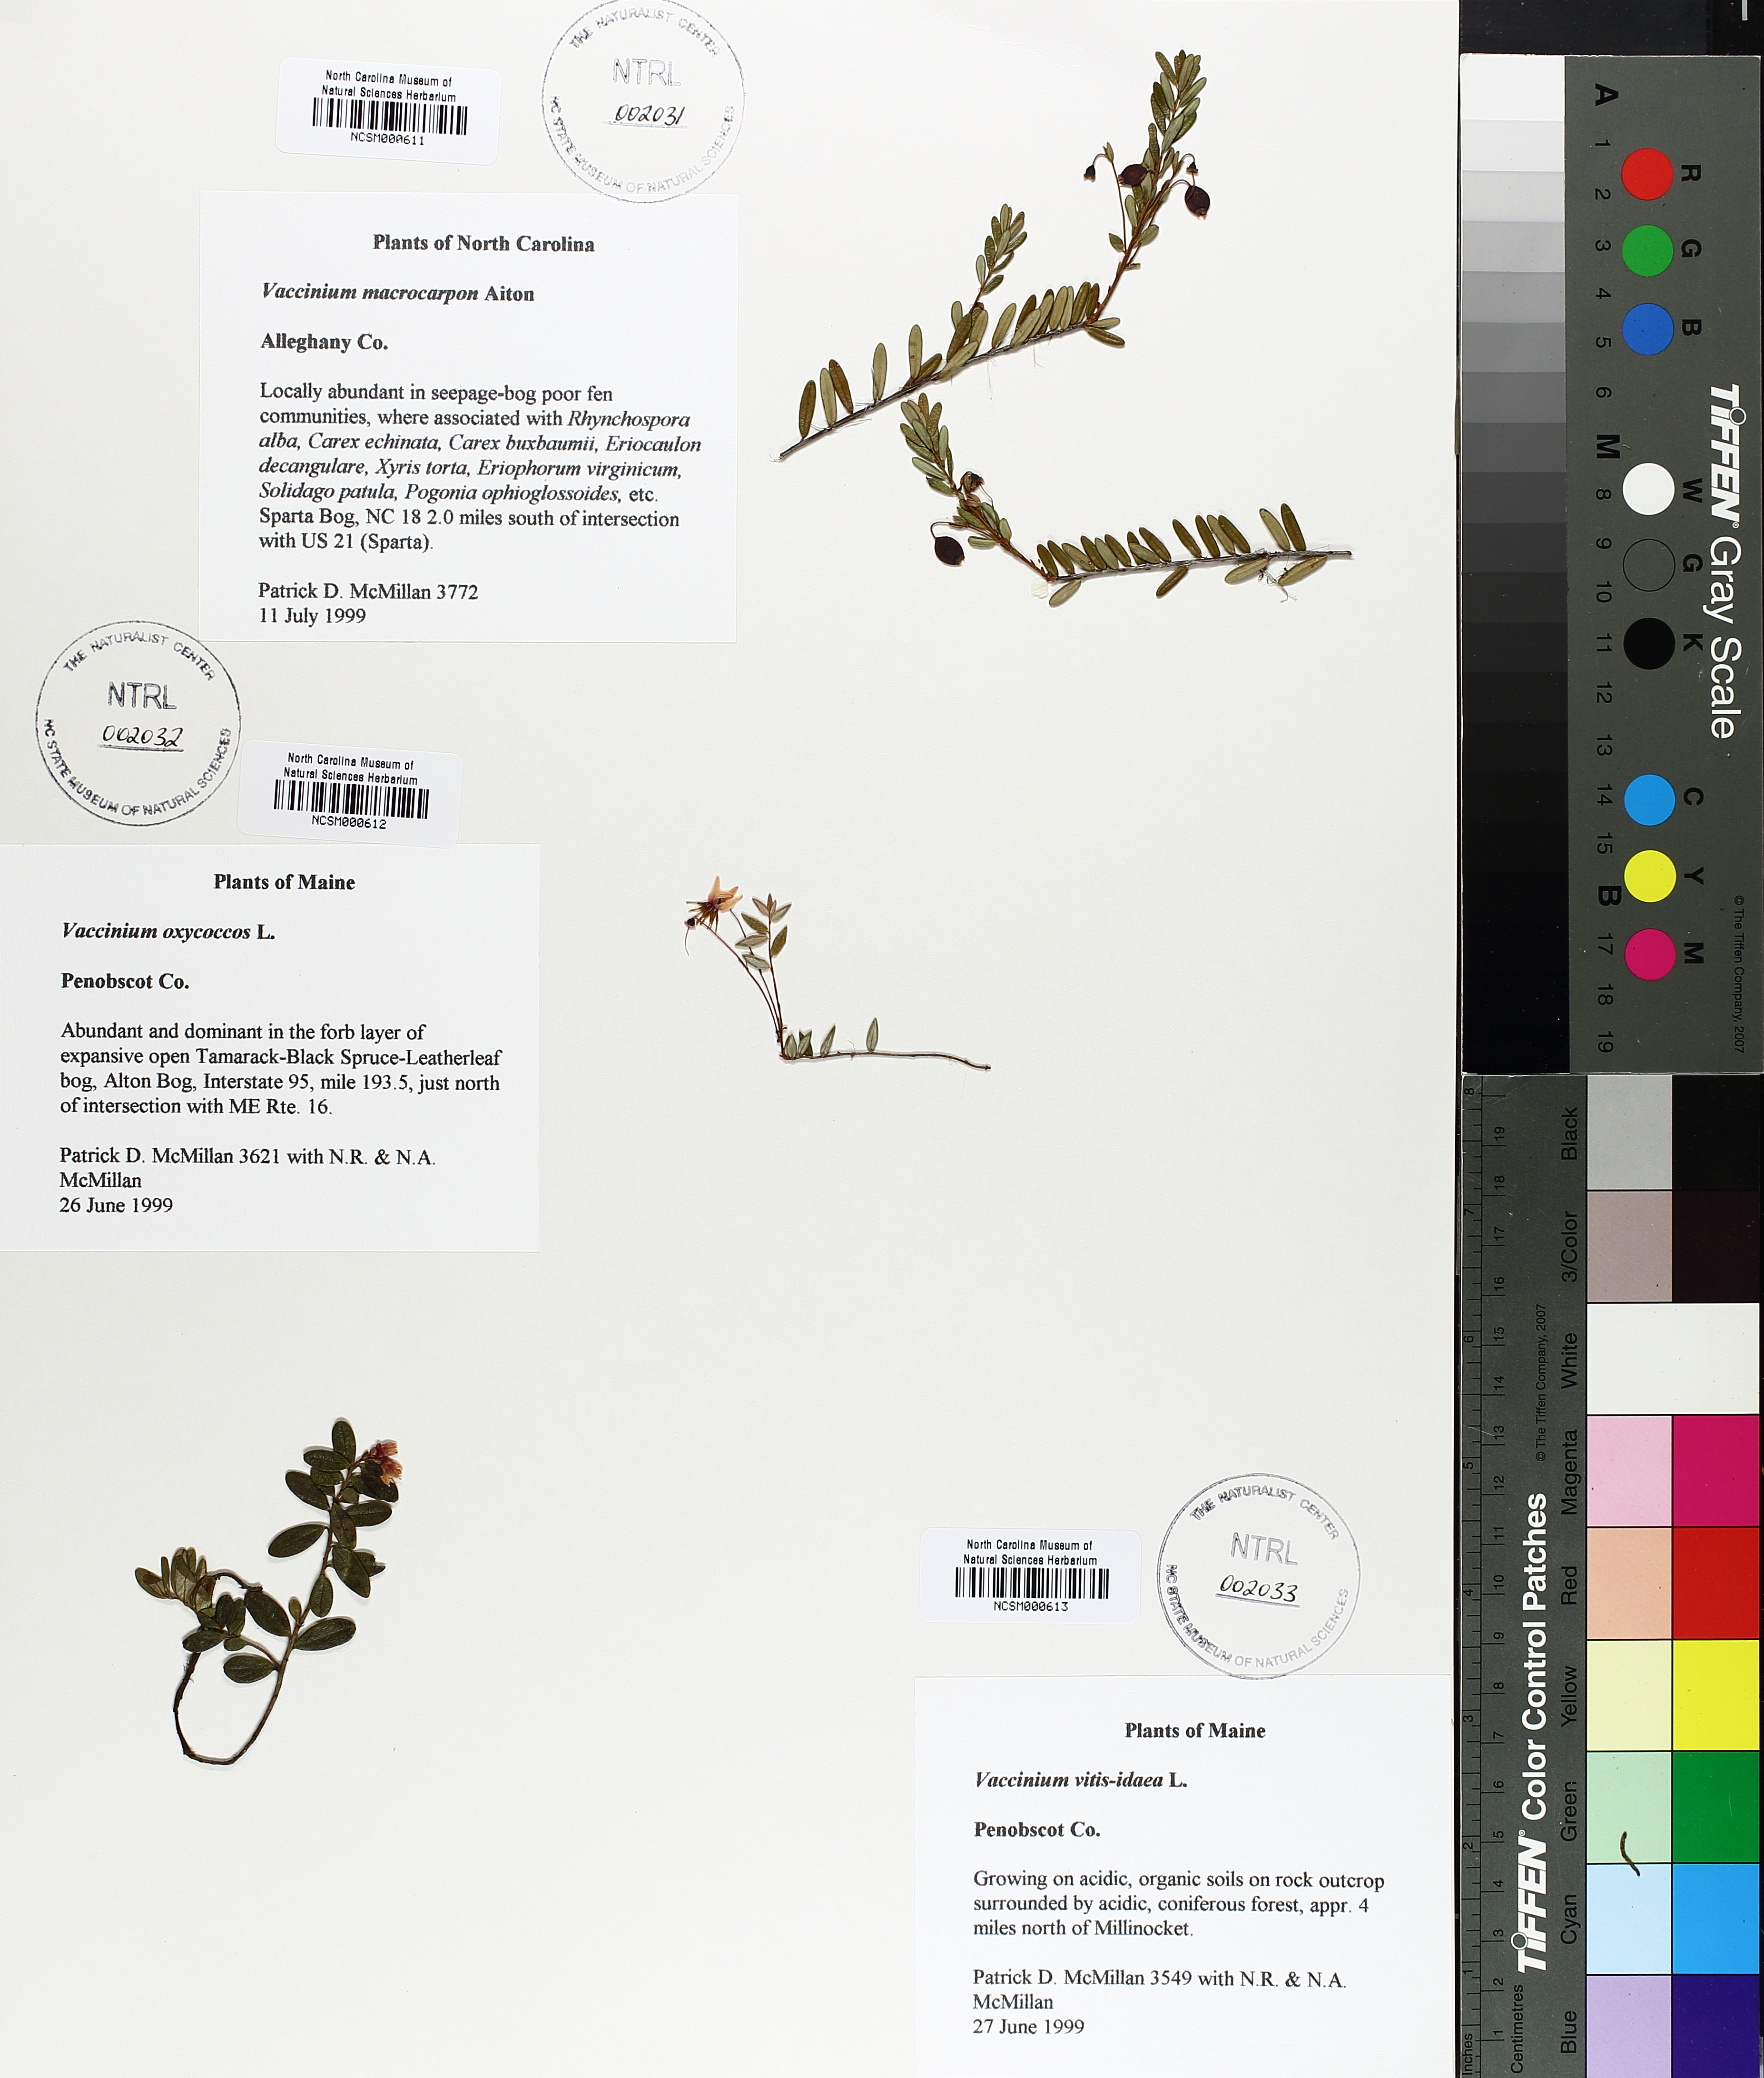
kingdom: Plantae
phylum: Tracheophyta
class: Magnoliopsida
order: Ericales
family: Ericaceae
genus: Vaccinium
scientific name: Vaccinium vitis-idaea
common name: Cowberry
